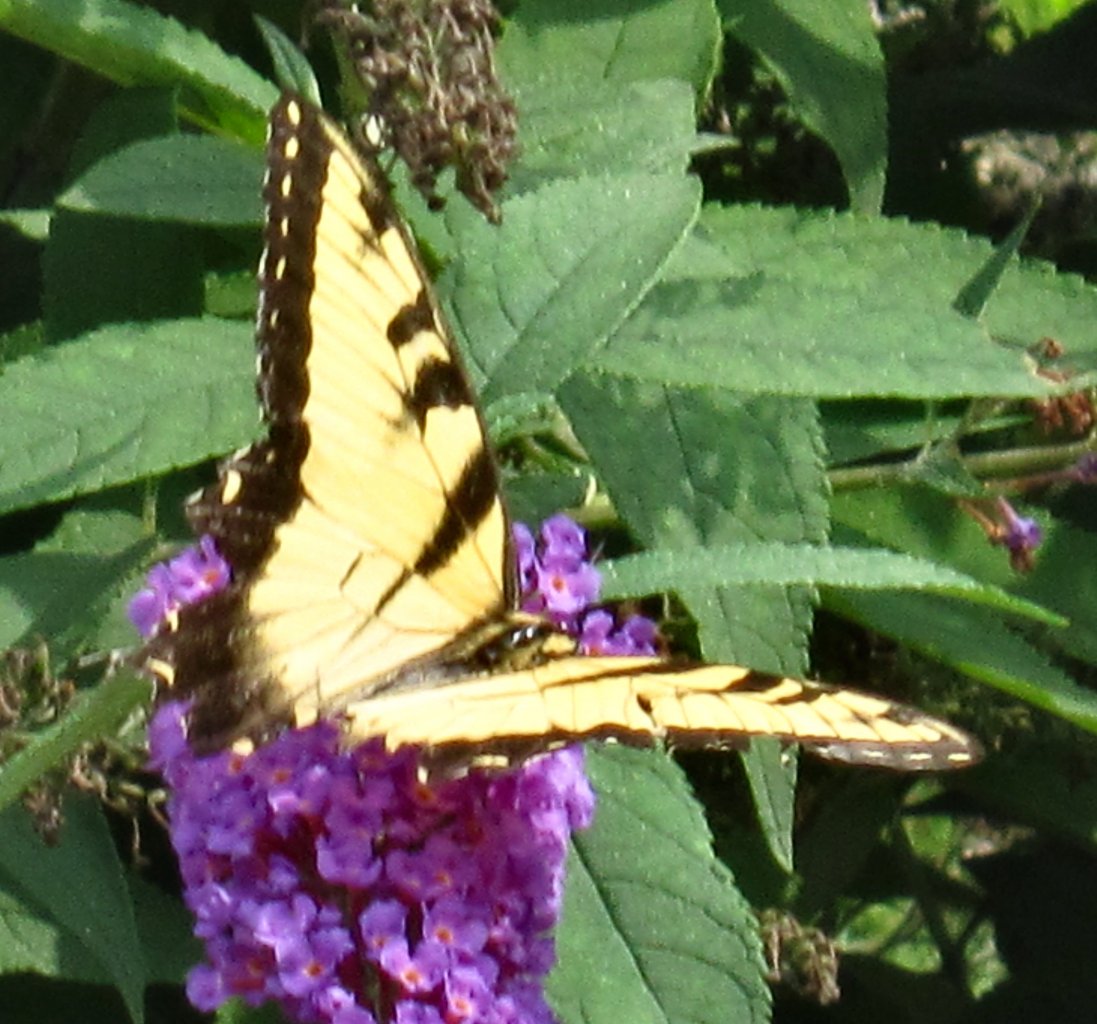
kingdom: Animalia
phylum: Arthropoda
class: Insecta
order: Lepidoptera
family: Papilionidae
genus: Pterourus
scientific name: Pterourus glaucus
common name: Eastern Tiger Swallowtail
